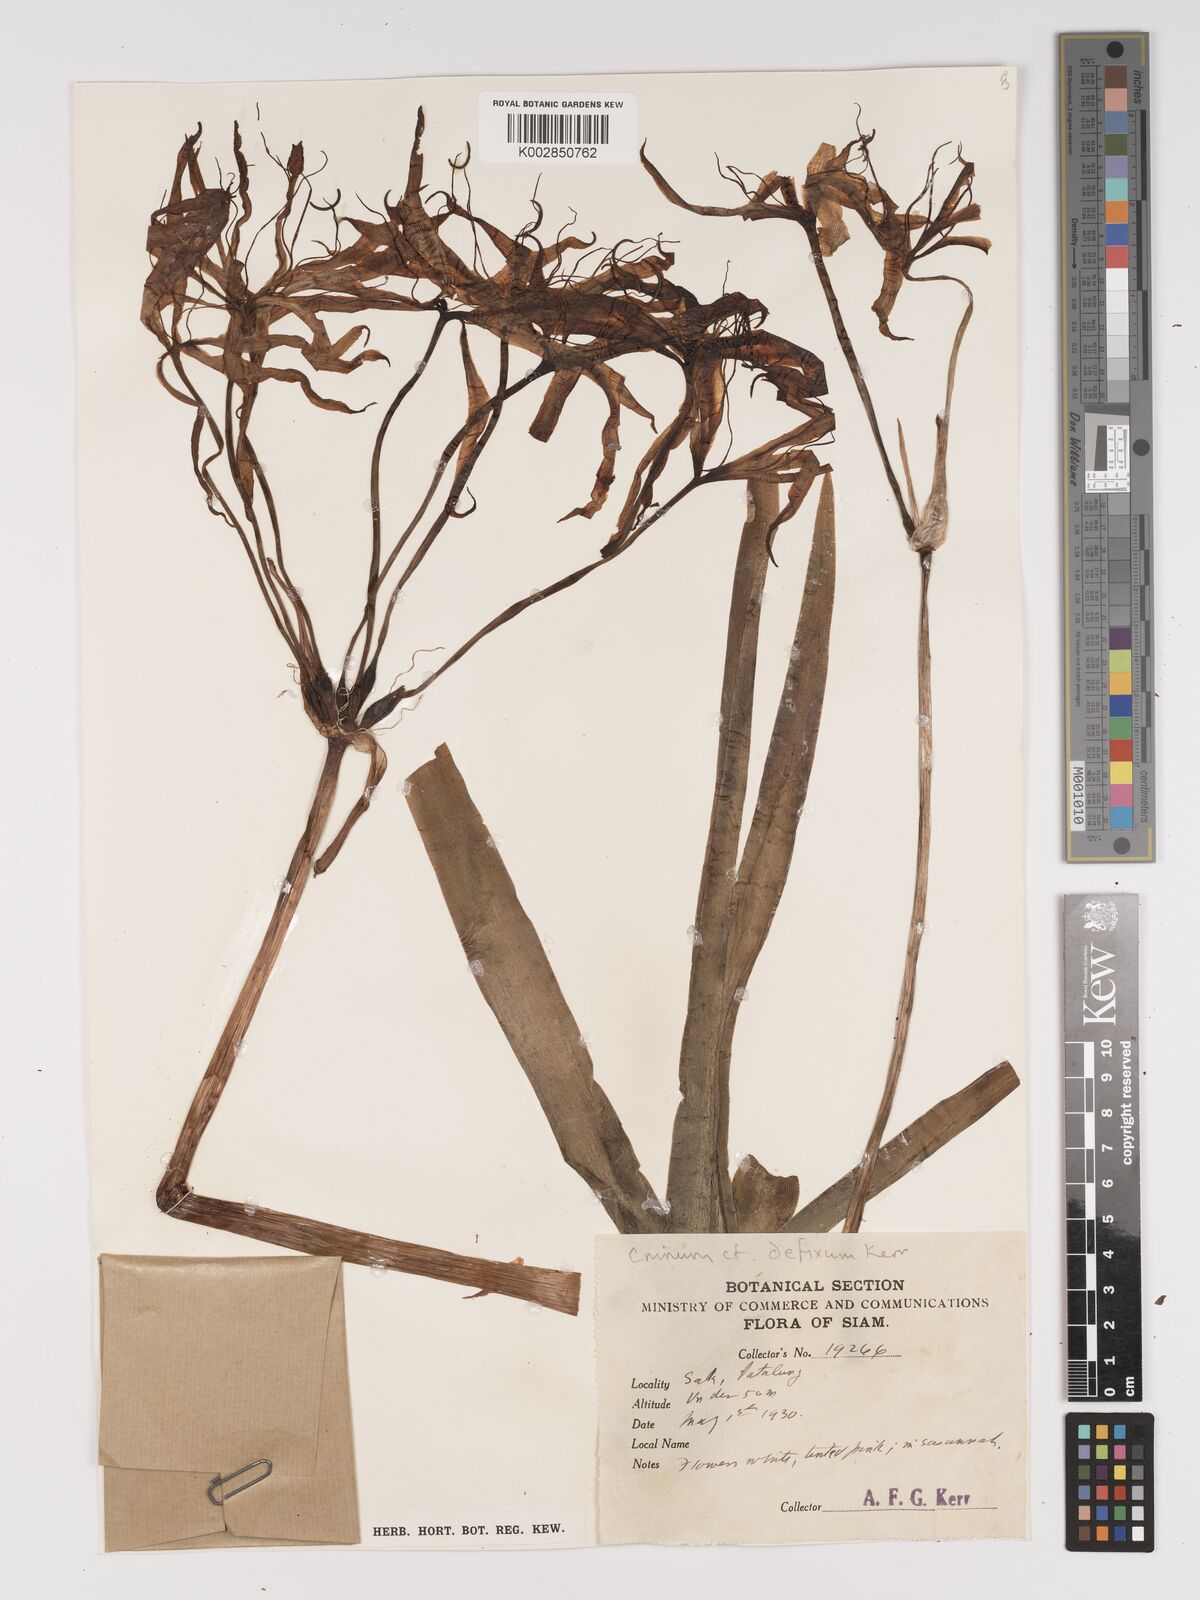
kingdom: Plantae
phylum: Tracheophyta
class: Liliopsida
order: Asparagales
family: Amaryllidaceae
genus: Crinum
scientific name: Crinum defixum
